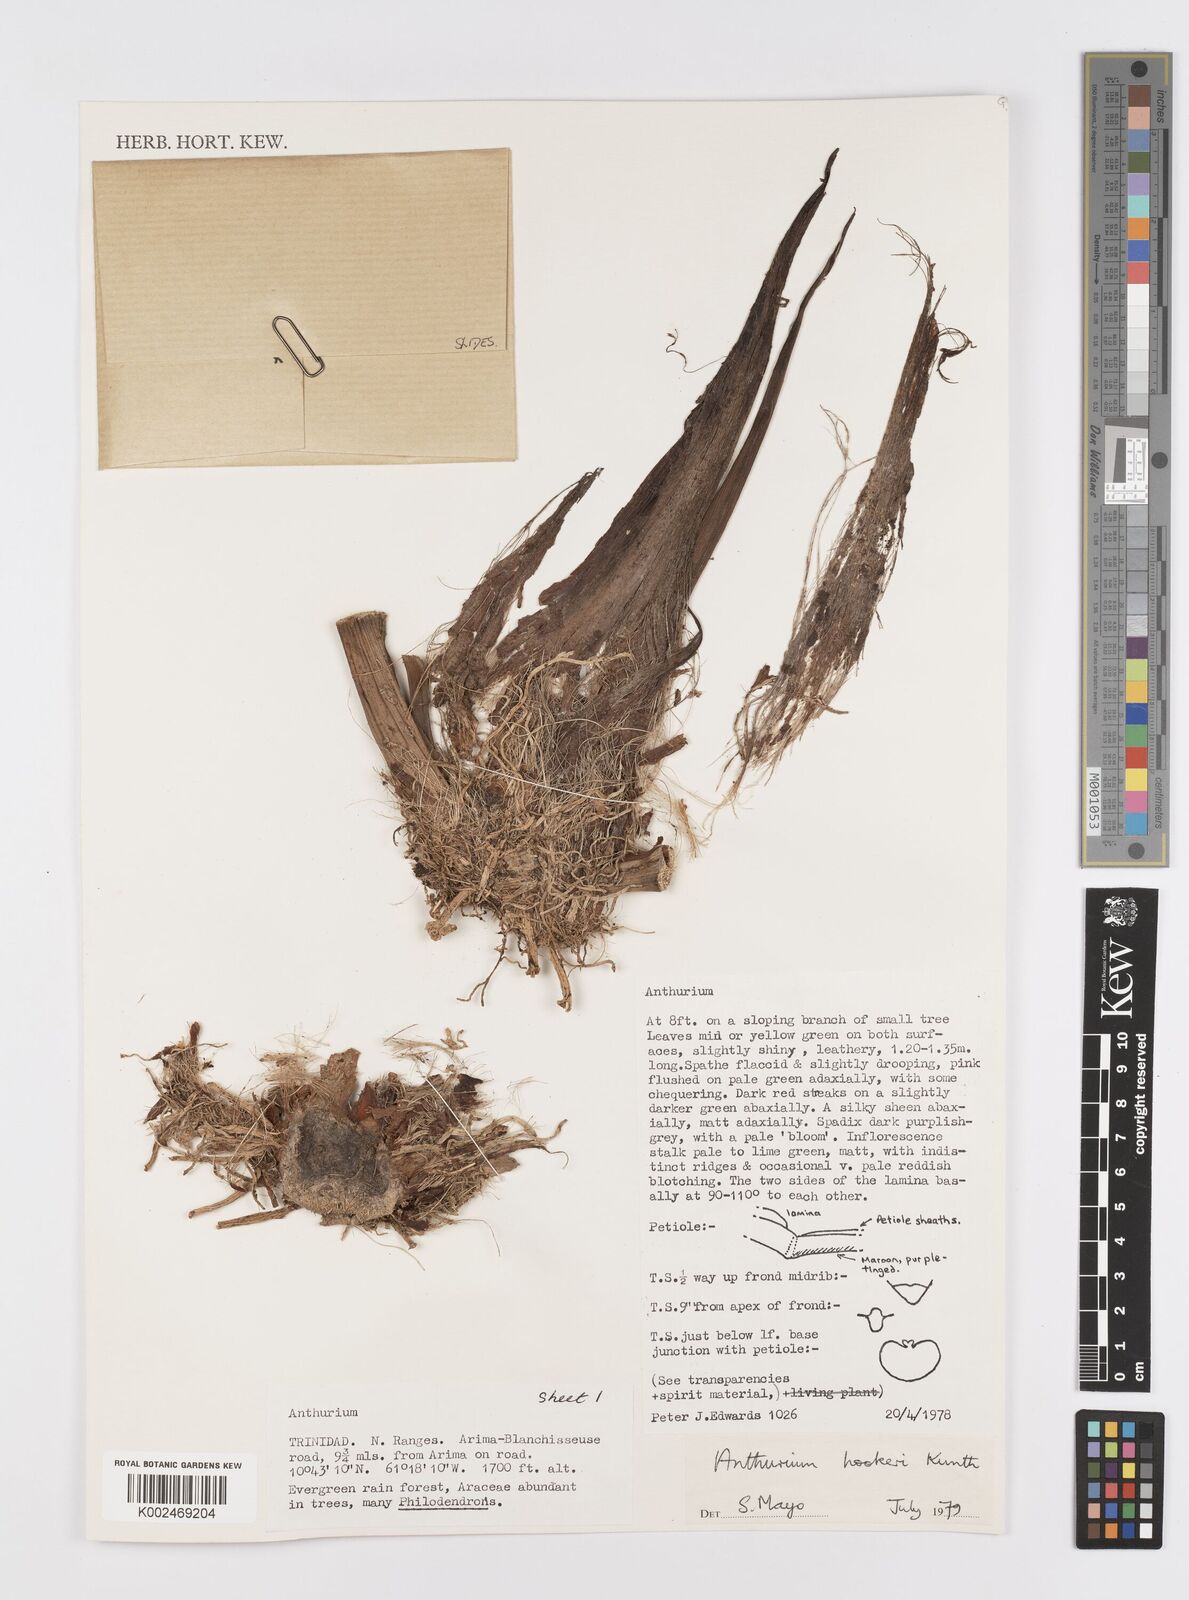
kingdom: Plantae
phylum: Tracheophyta
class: Liliopsida
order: Alismatales
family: Araceae
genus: Anthurium
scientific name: Anthurium hookeri
